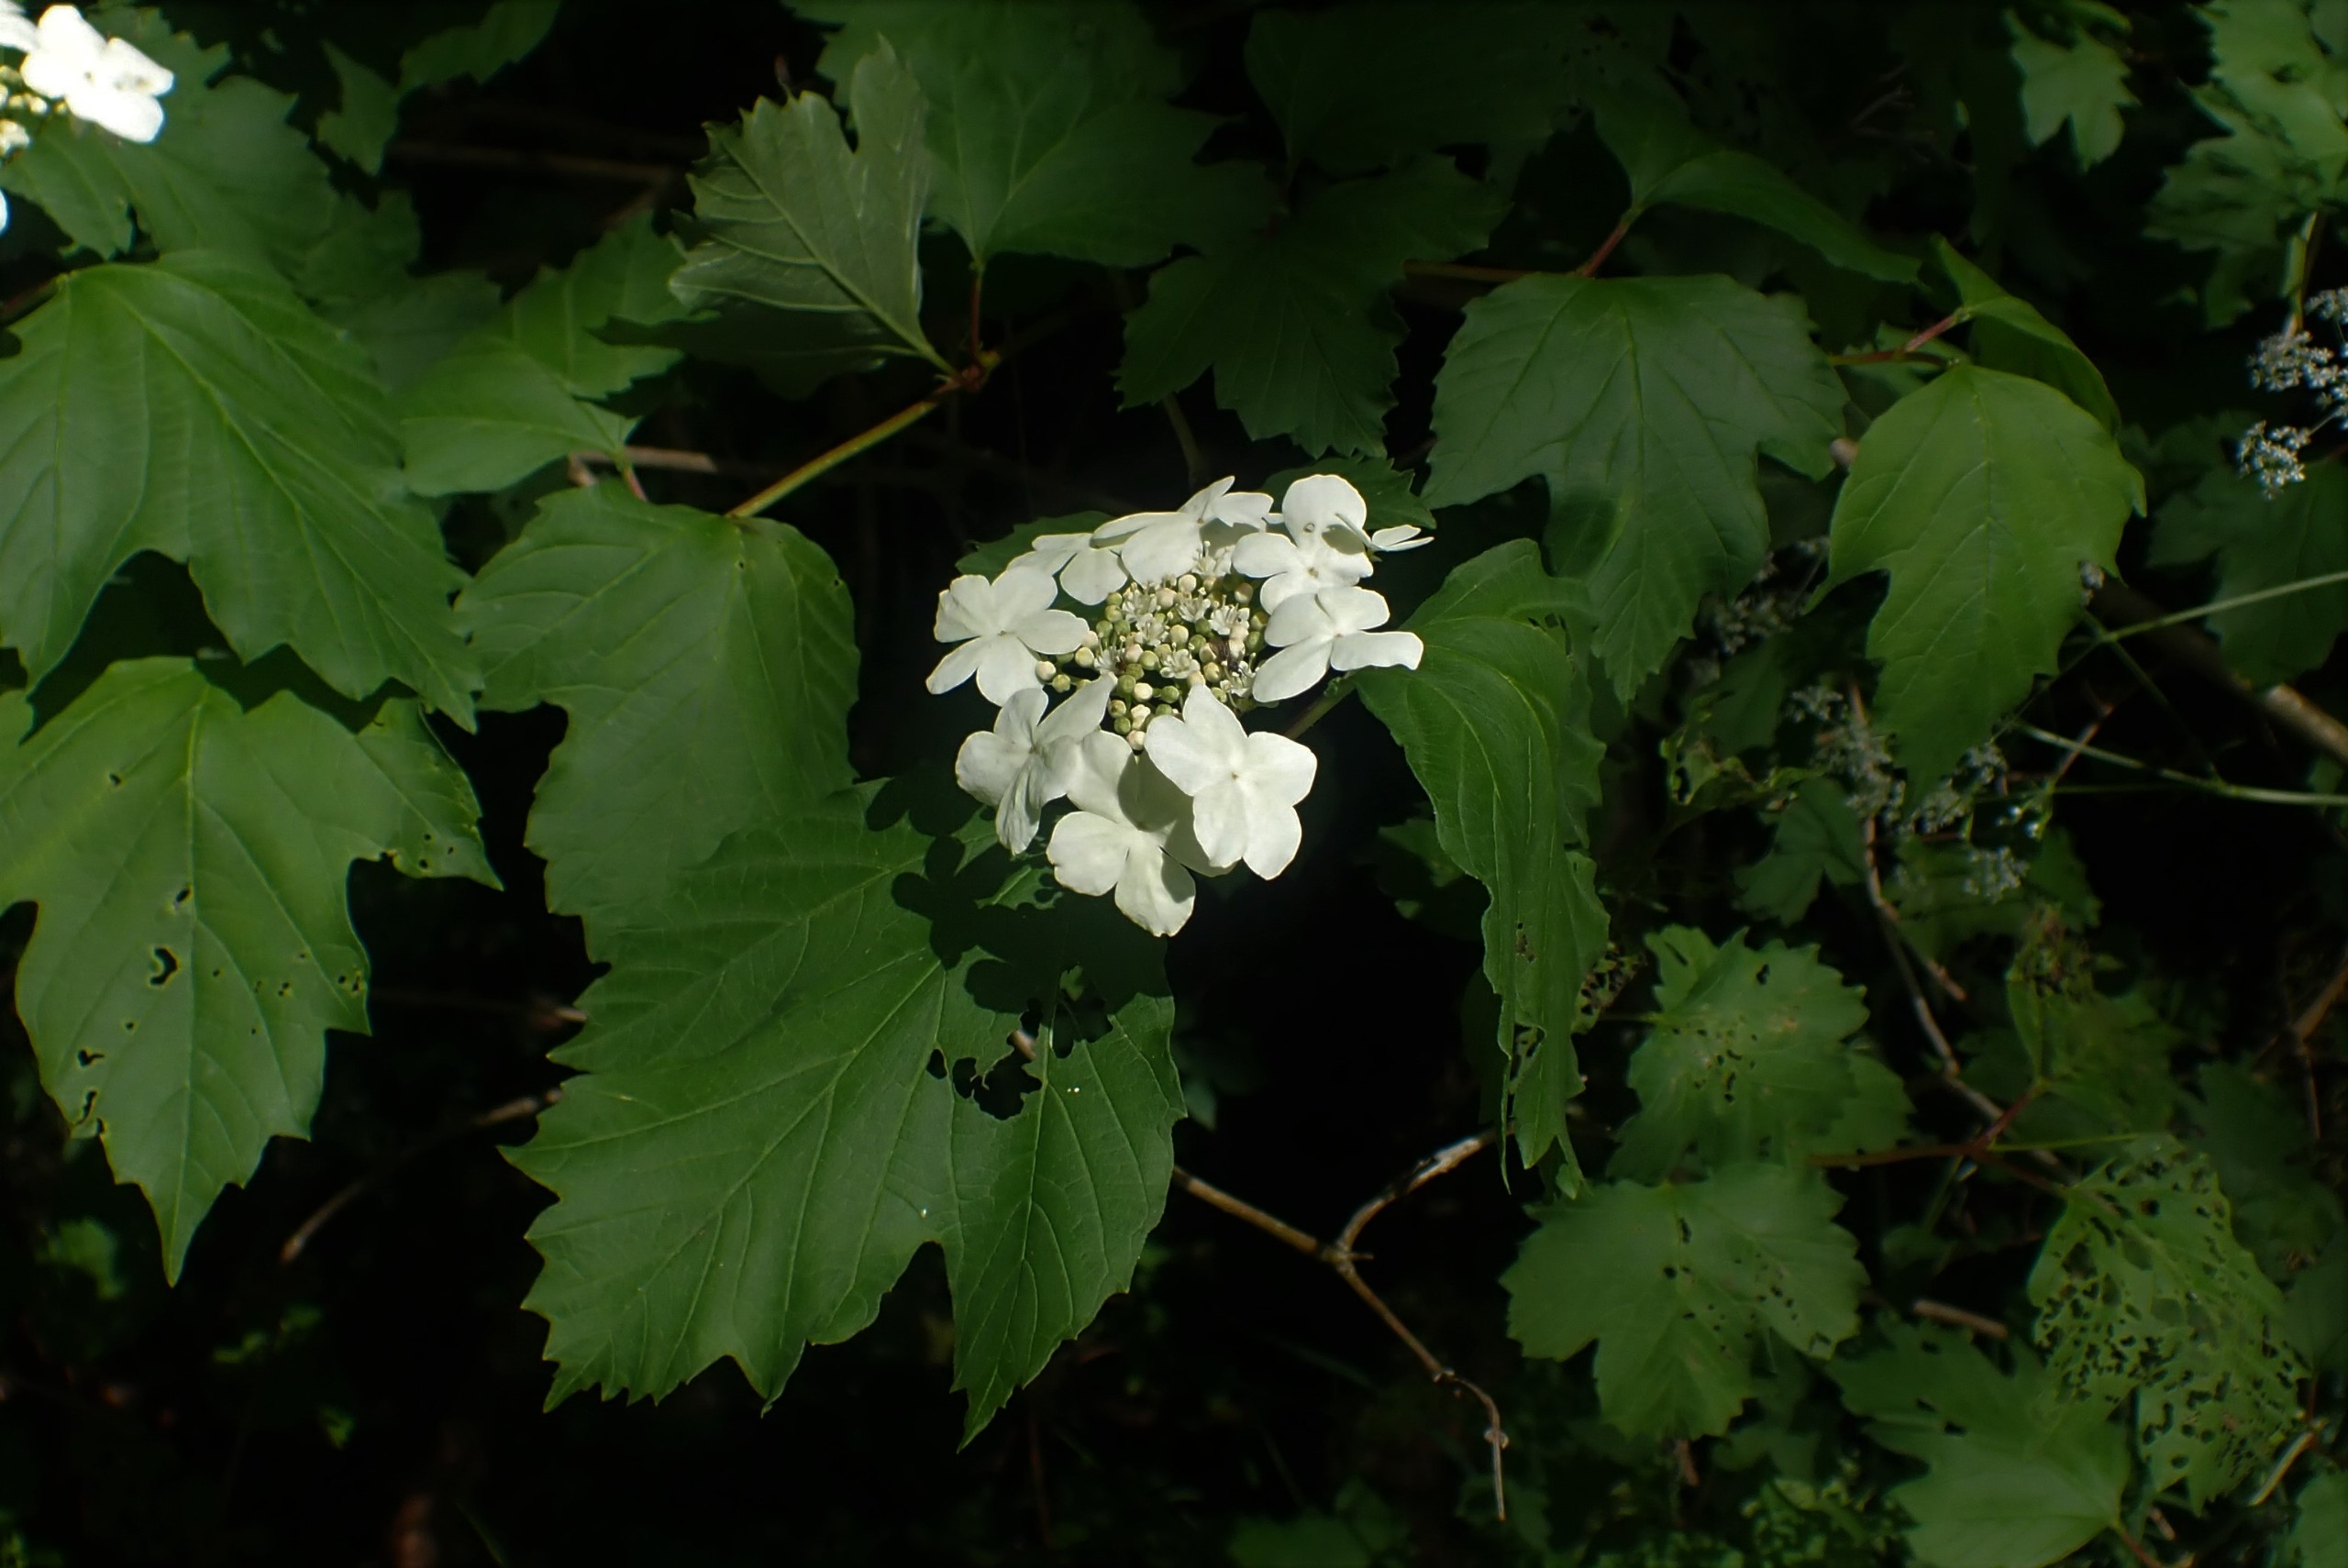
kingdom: Plantae
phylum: Tracheophyta
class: Magnoliopsida
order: Dipsacales
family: Viburnaceae
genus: Viburnum
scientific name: Viburnum opulus
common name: Kvalkved
